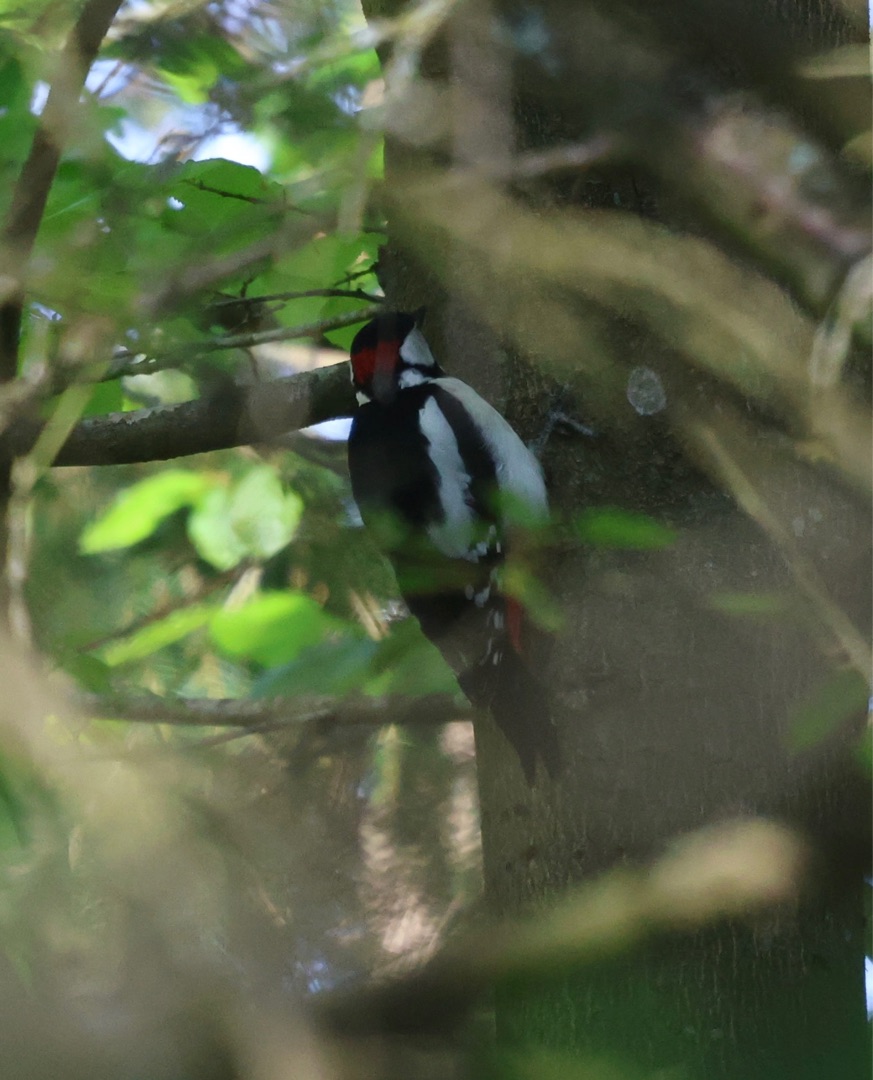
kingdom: Animalia
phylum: Chordata
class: Aves
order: Piciformes
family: Picidae
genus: Dendrocopos
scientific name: Dendrocopos major
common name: Stor flagspætte
